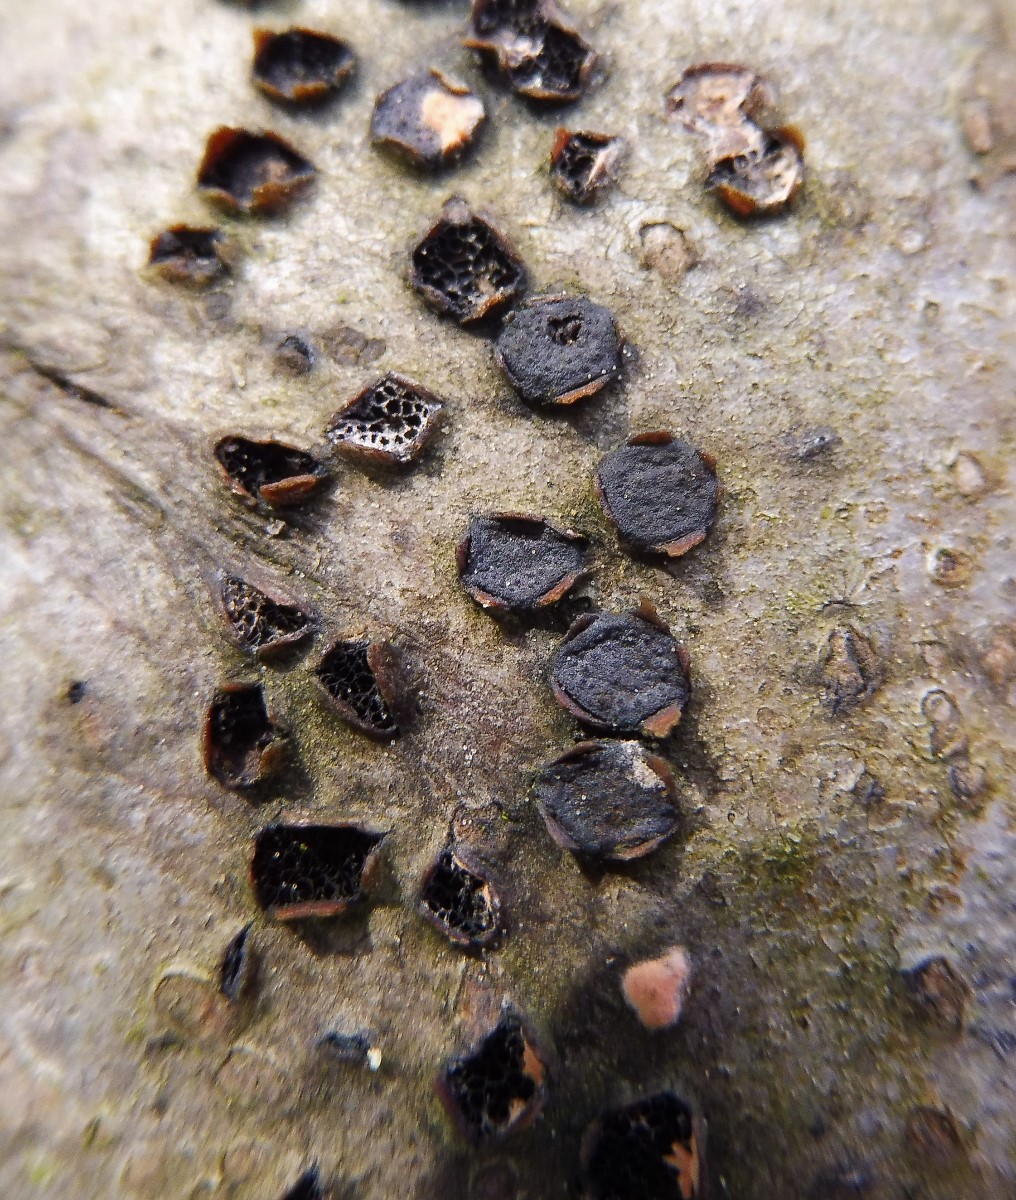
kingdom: Fungi
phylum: Ascomycota
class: Sordariomycetes
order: Xylariales
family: Diatrypaceae
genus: Diatrype
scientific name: Diatrype disciformis
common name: kant-kulskorpe
